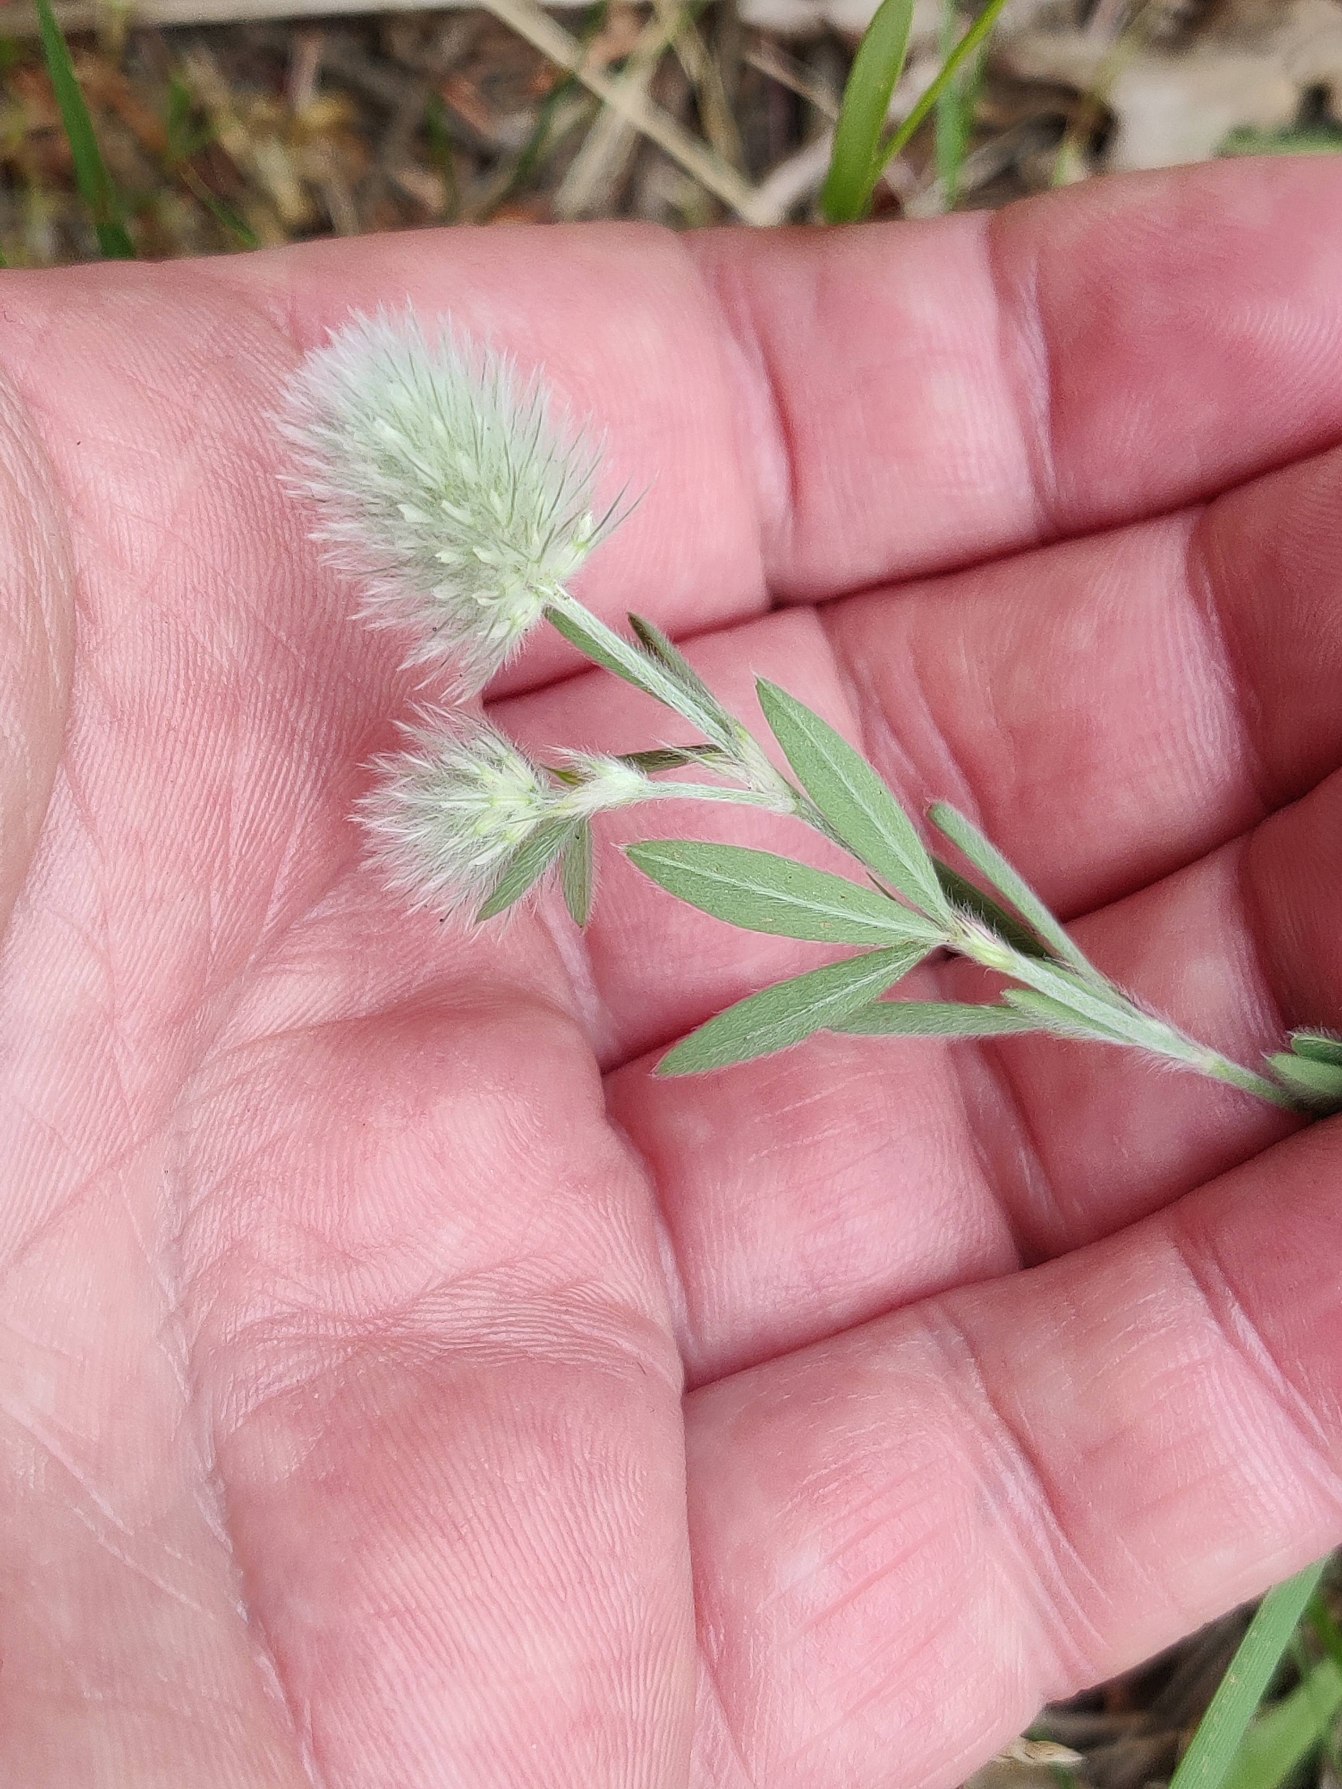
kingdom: Plantae
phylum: Tracheophyta
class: Magnoliopsida
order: Fabales
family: Fabaceae
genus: Trifolium
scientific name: Trifolium arvense
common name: Hare-kløver
